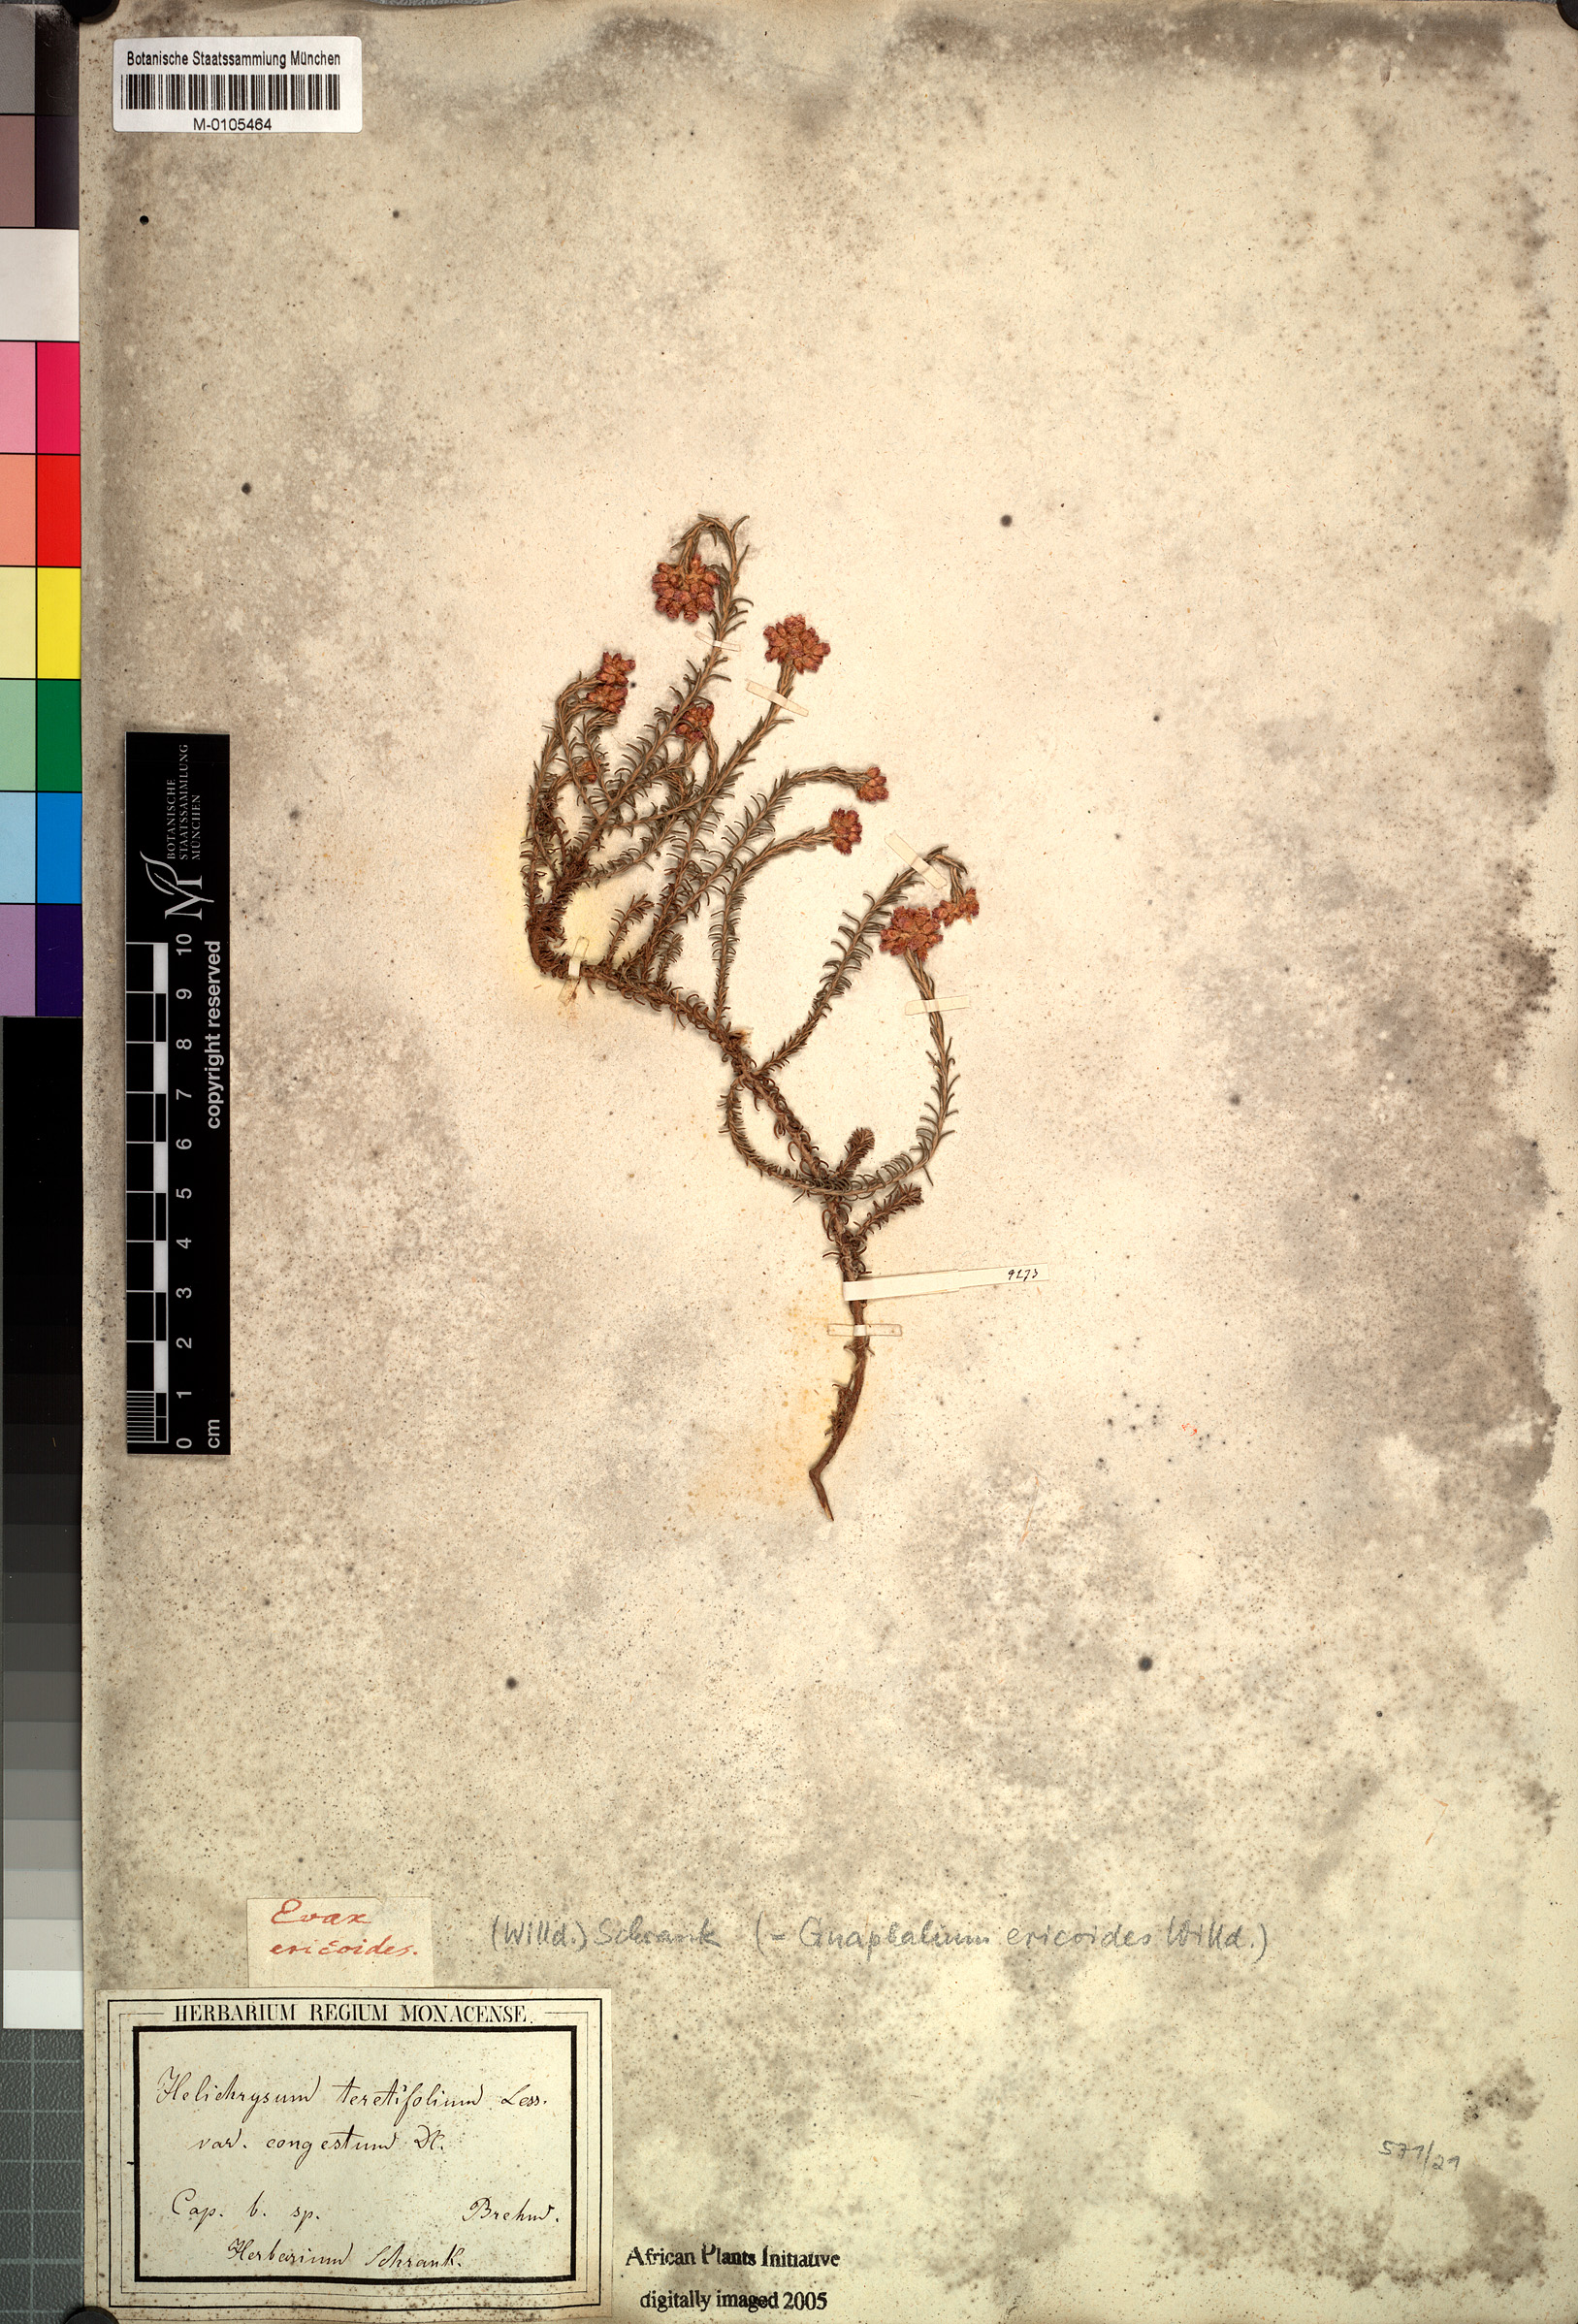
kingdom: Plantae
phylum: Tracheophyta
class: Magnoliopsida
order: Asterales
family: Asteraceae
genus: Helichrysum
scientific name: Helichrysum teretifolium
